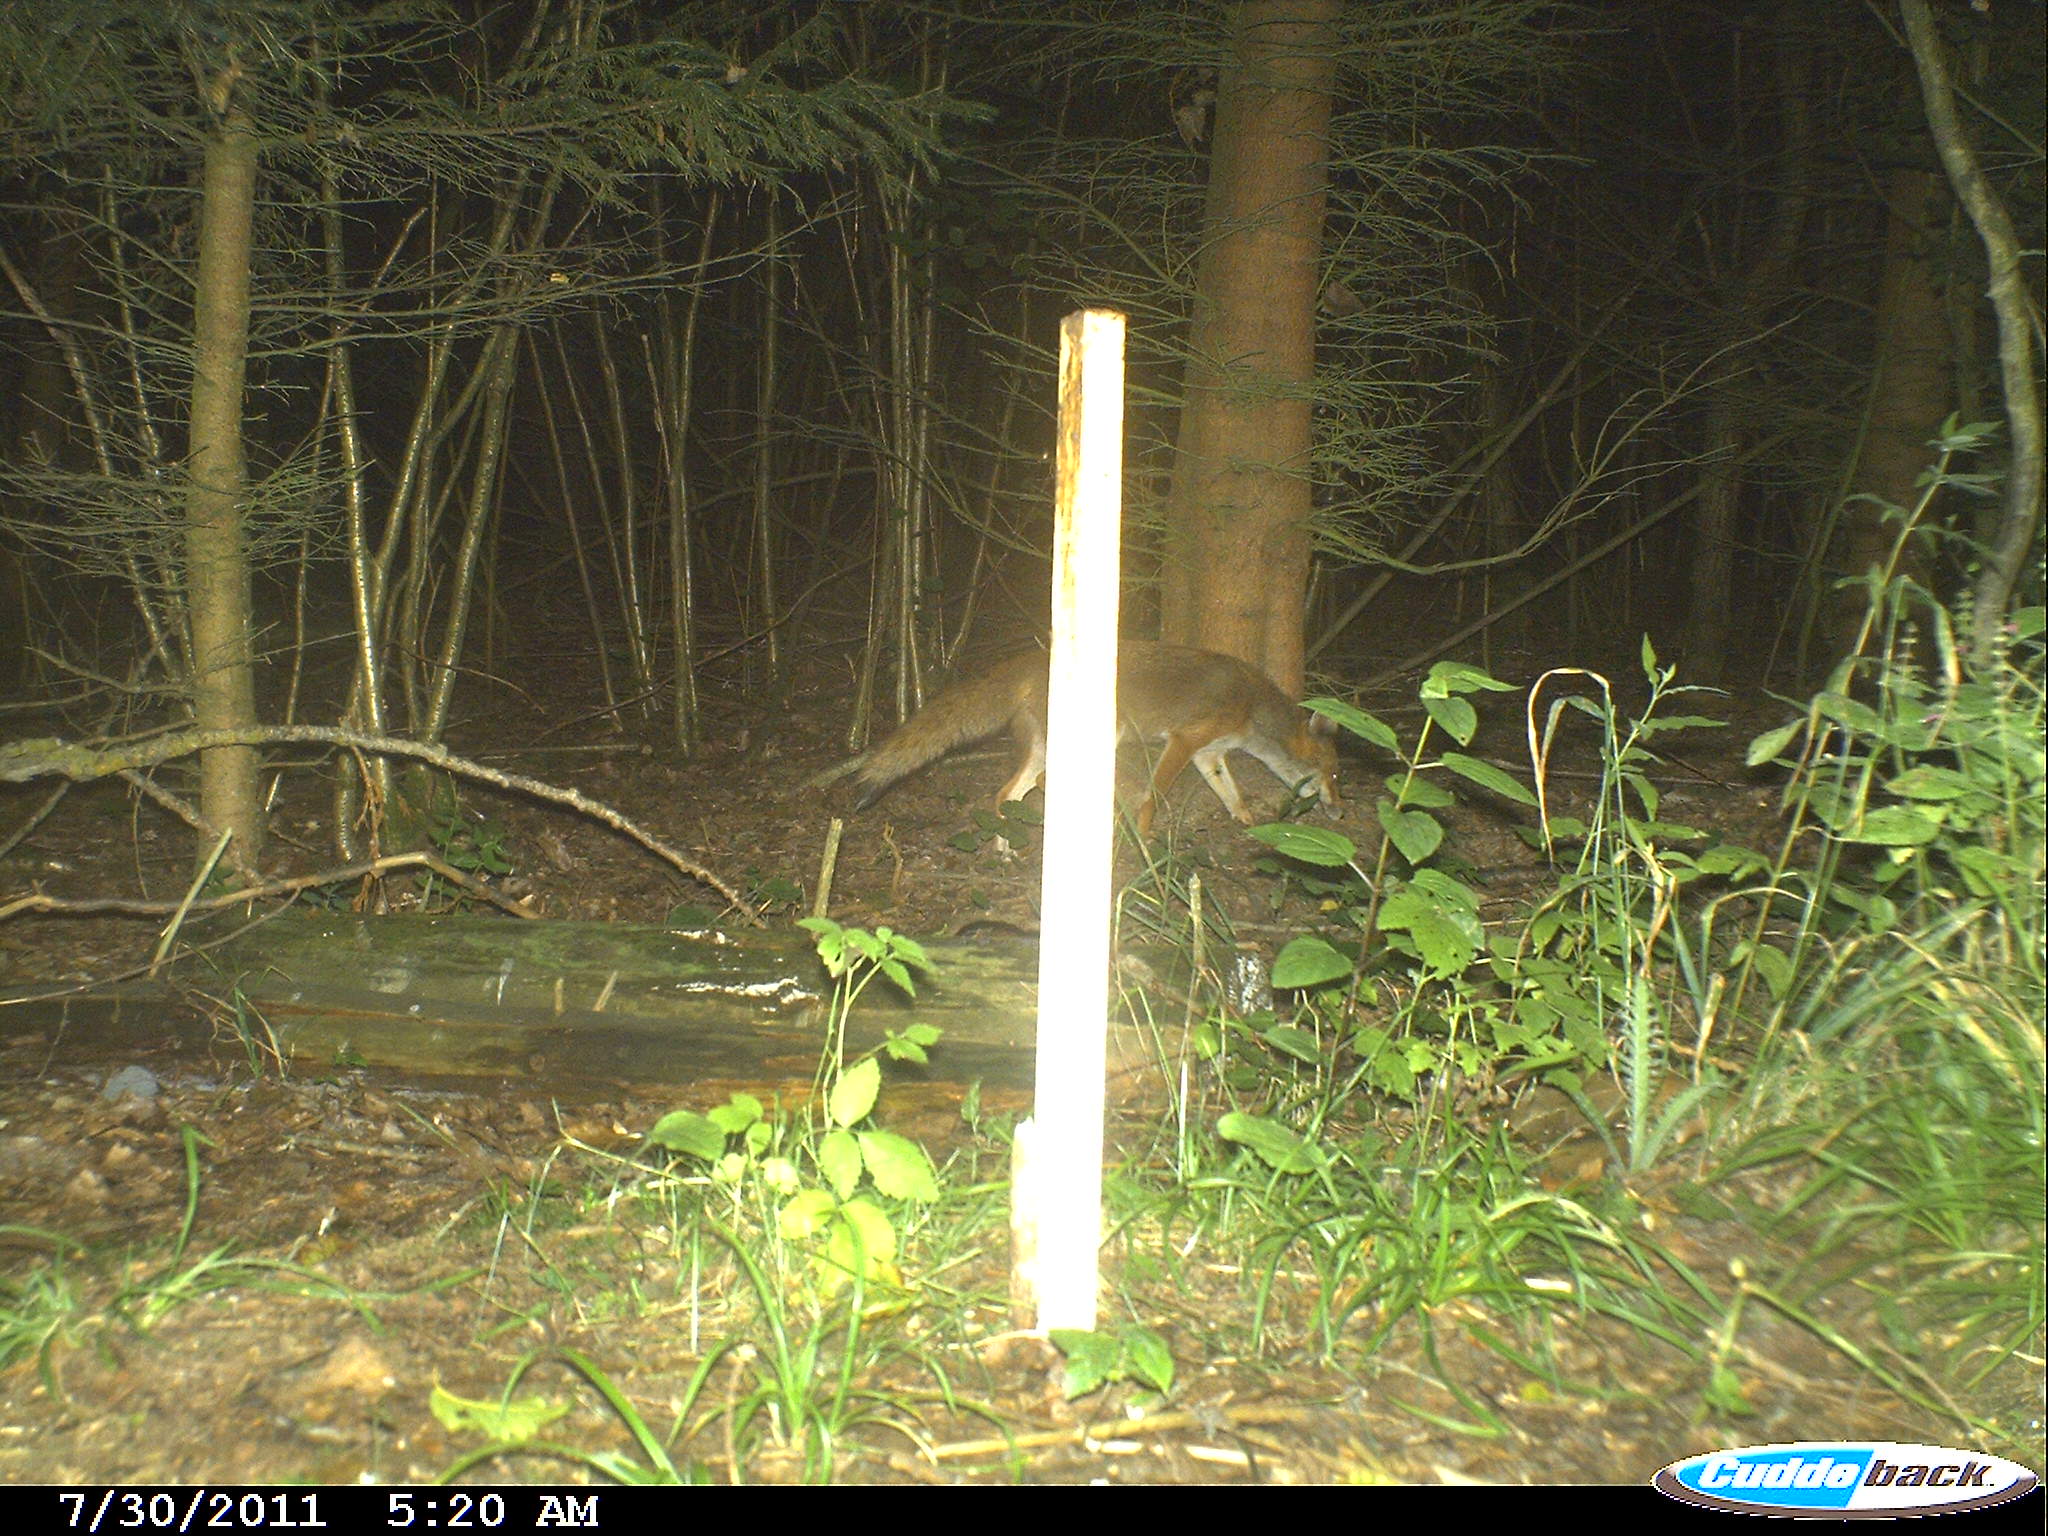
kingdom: Animalia
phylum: Chordata
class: Mammalia
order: Carnivora
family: Canidae
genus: Vulpes
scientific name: Vulpes vulpes
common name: Red fox
